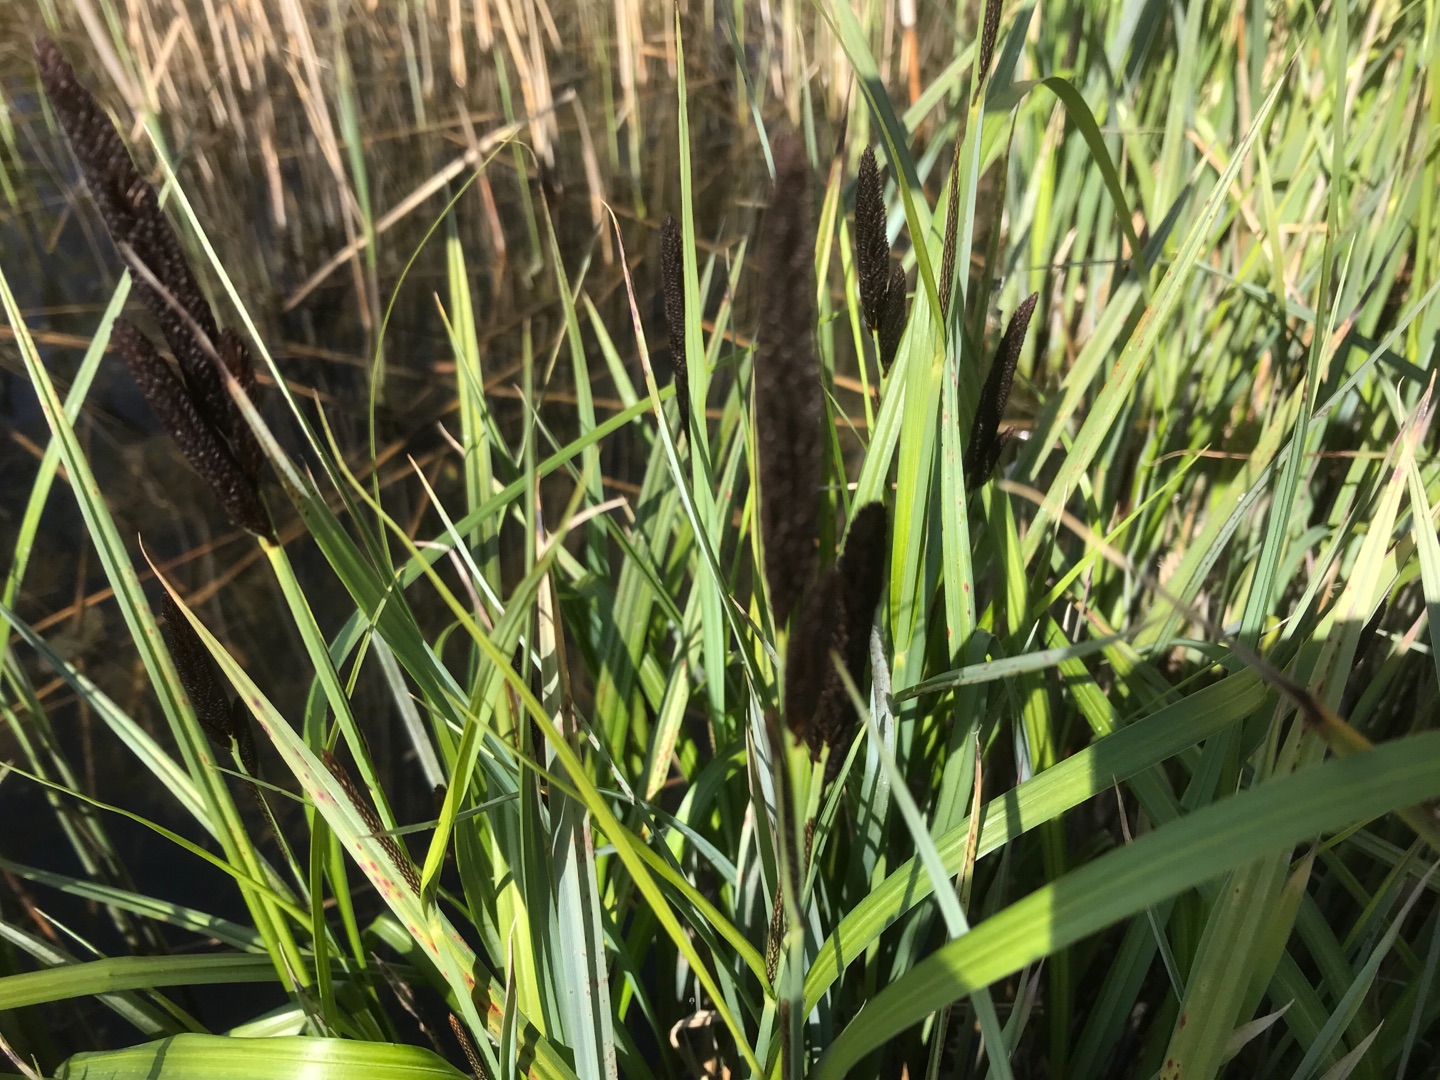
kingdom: Plantae
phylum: Tracheophyta
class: Liliopsida
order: Poales
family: Cyperaceae
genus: Carex
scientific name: Carex
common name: Starslægten
